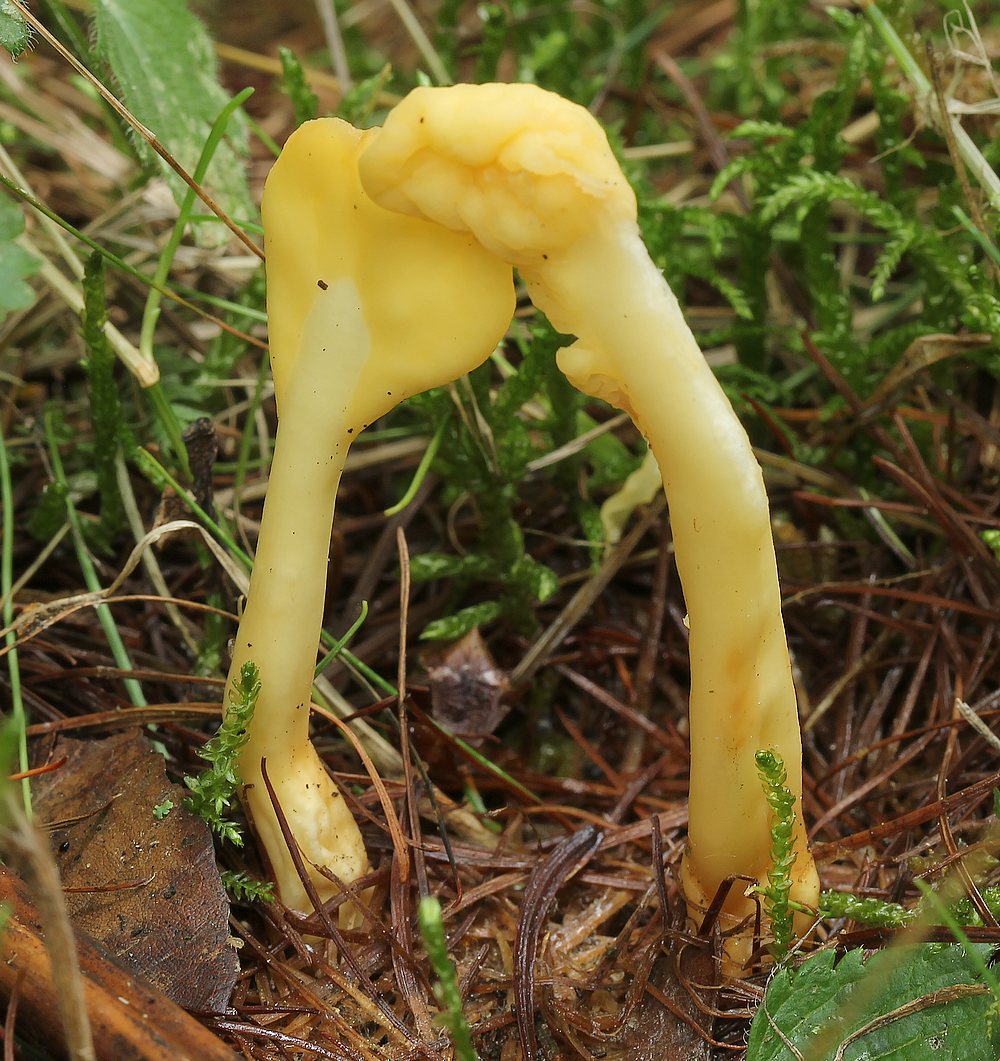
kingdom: Fungi
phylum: Ascomycota
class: Leotiomycetes
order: Rhytismatales
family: Cudoniaceae
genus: Spathularia
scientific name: Spathularia flavida
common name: gul spatelsvamp
